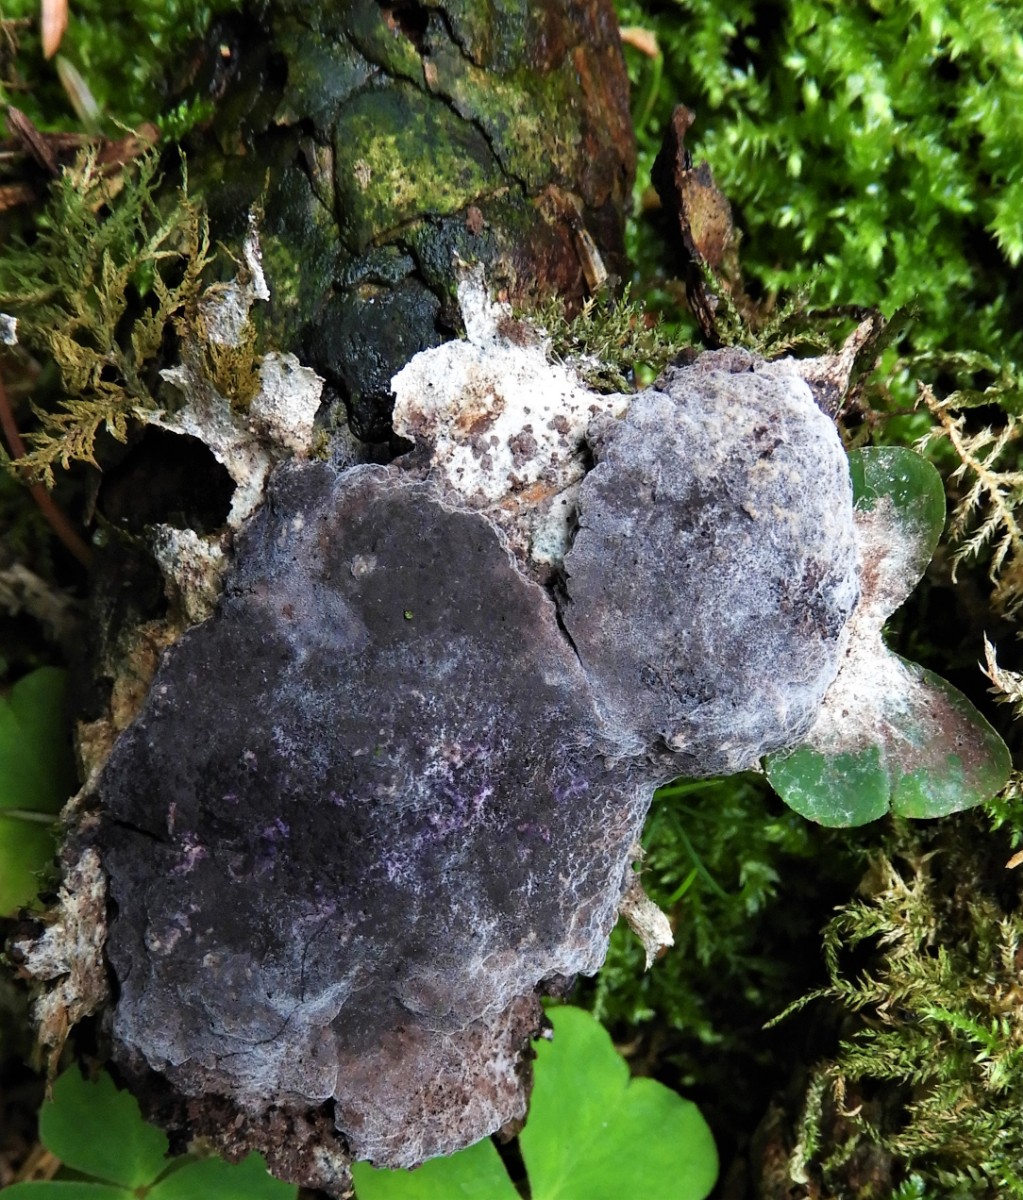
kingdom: Fungi
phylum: Ascomycota
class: Sordariomycetes
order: Hypocreales
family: Bionectriaceae
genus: Nectriopsis
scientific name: Nectriopsis violacea
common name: violet snyltespind
